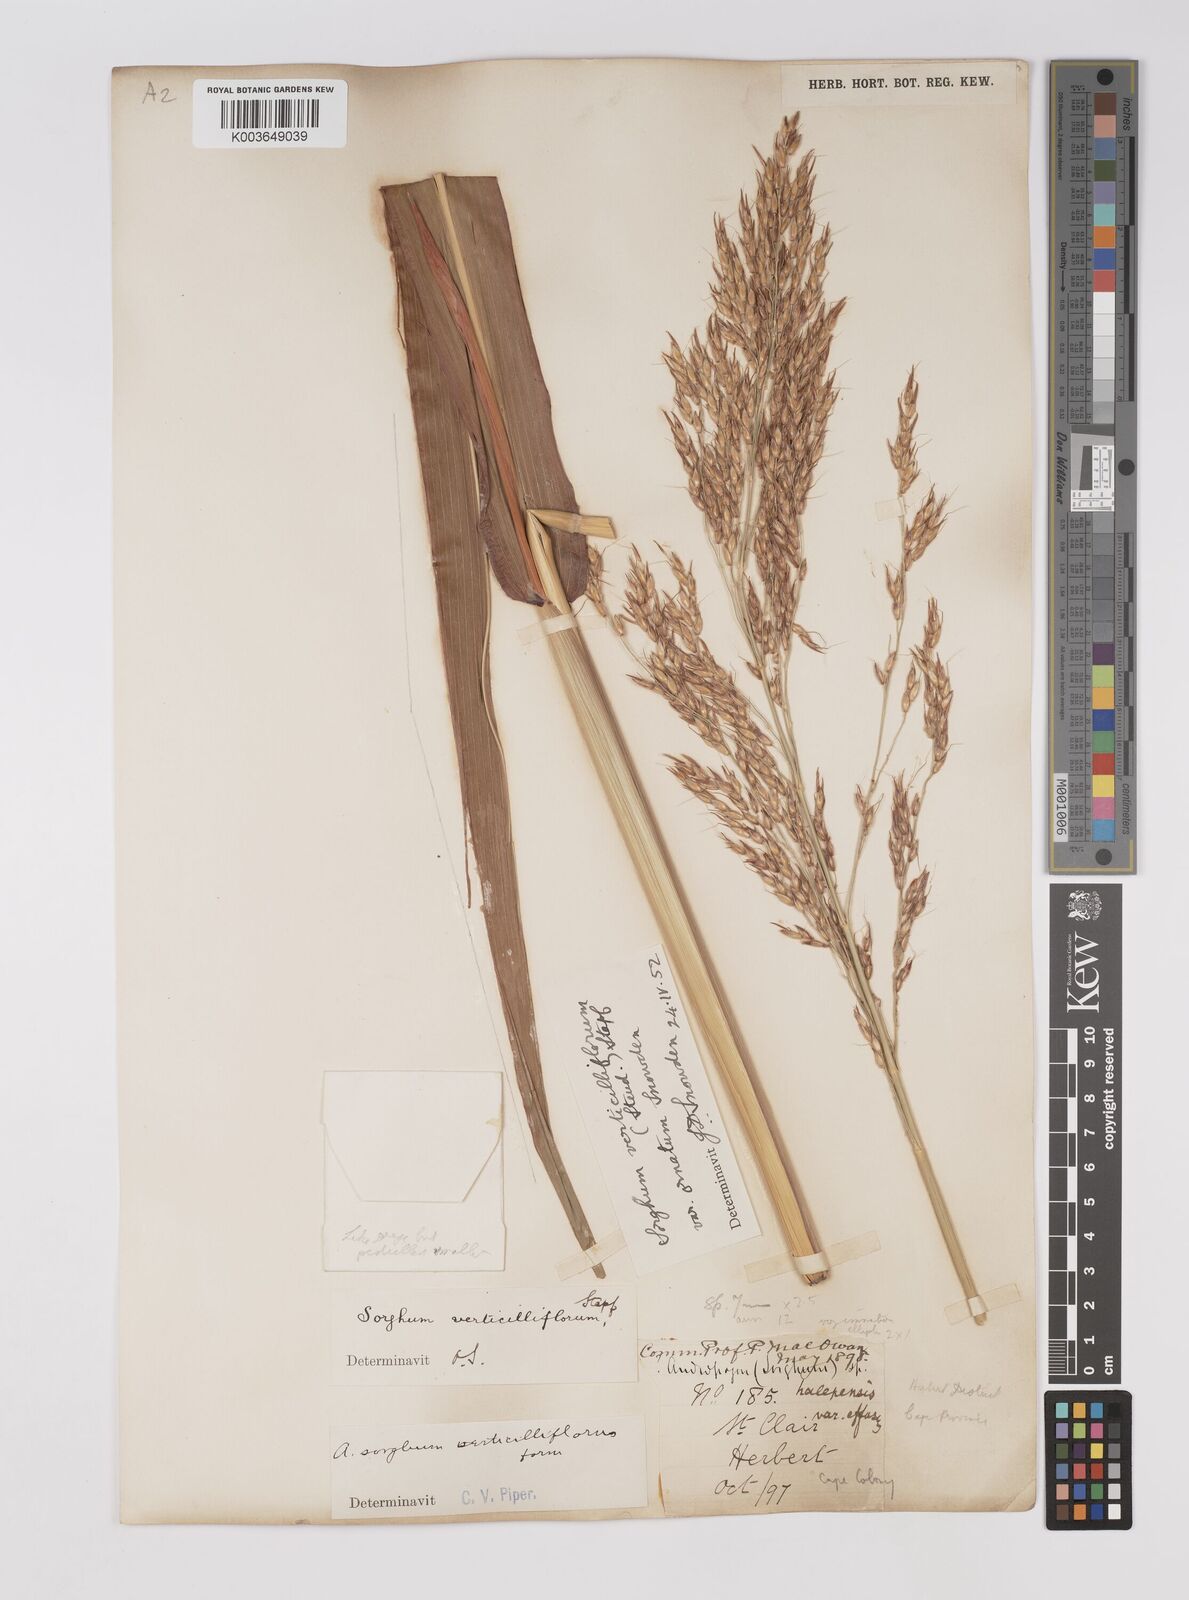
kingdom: Plantae
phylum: Tracheophyta
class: Liliopsida
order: Poales
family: Poaceae
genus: Sorghum
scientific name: Sorghum arundinaceum
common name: Sorghum
